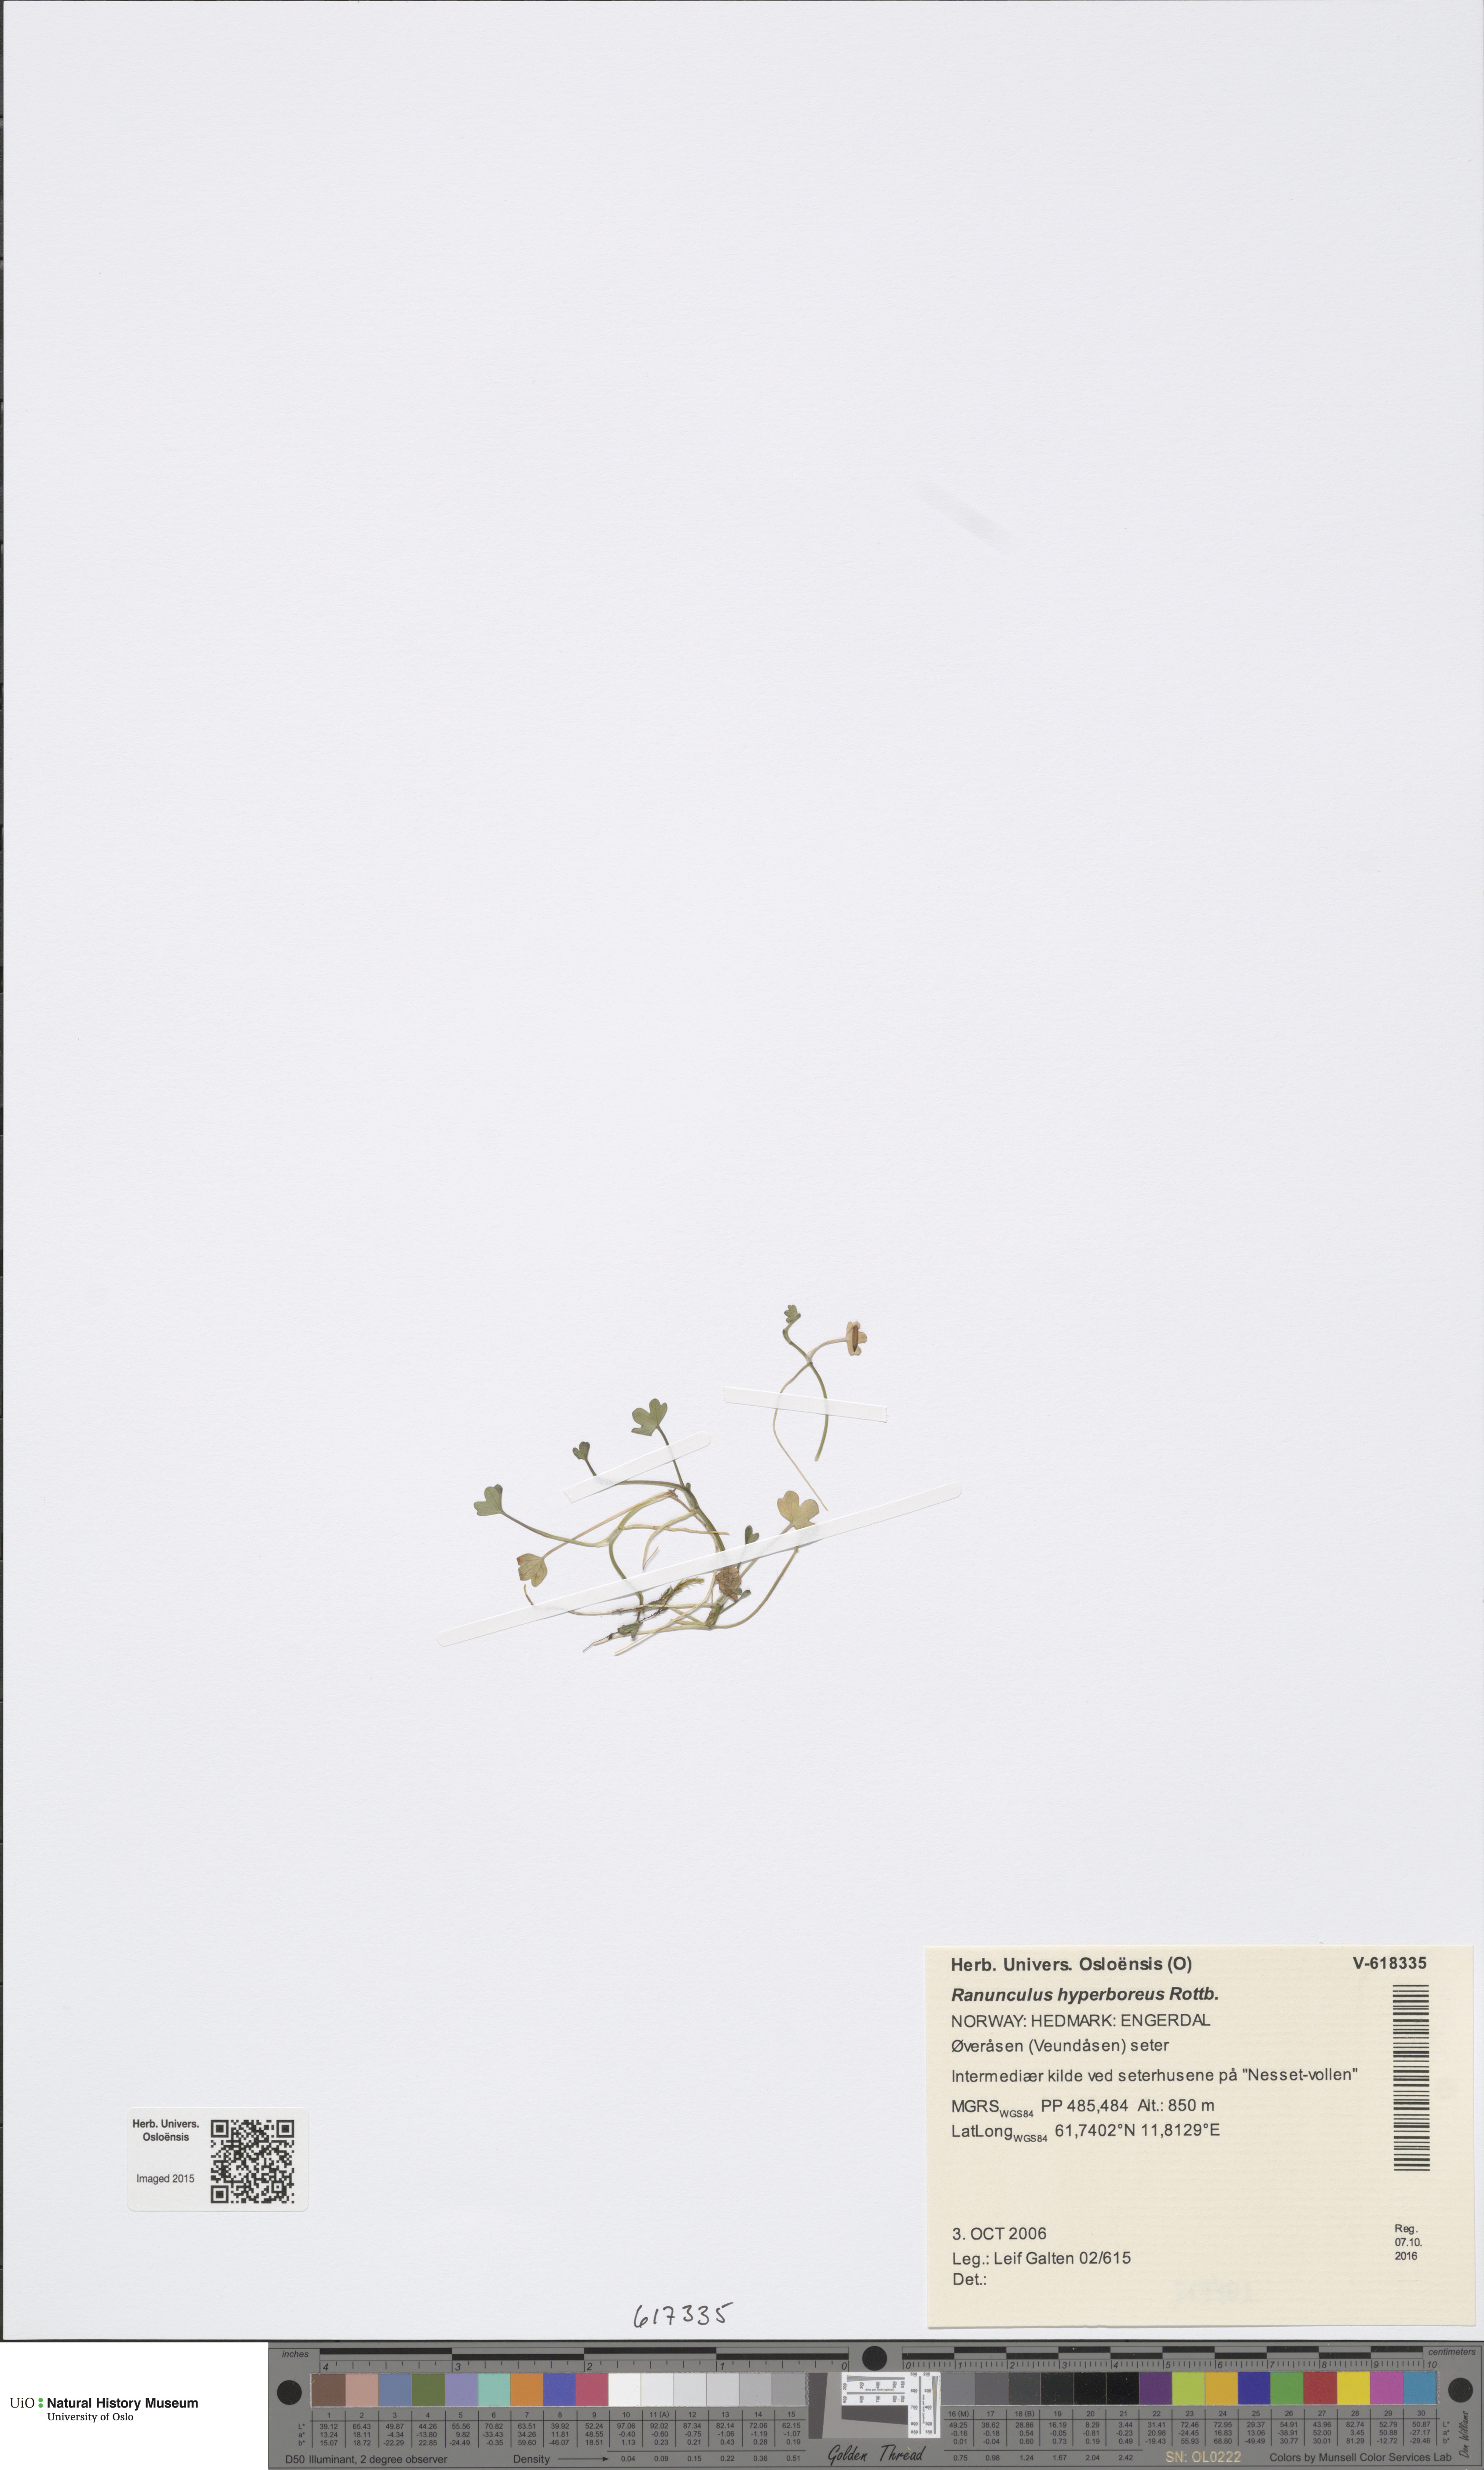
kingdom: Plantae
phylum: Tracheophyta
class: Magnoliopsida
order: Ranunculales
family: Ranunculaceae
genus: Ranunculus
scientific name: Ranunculus hyperboreus
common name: Arctic buttercup
